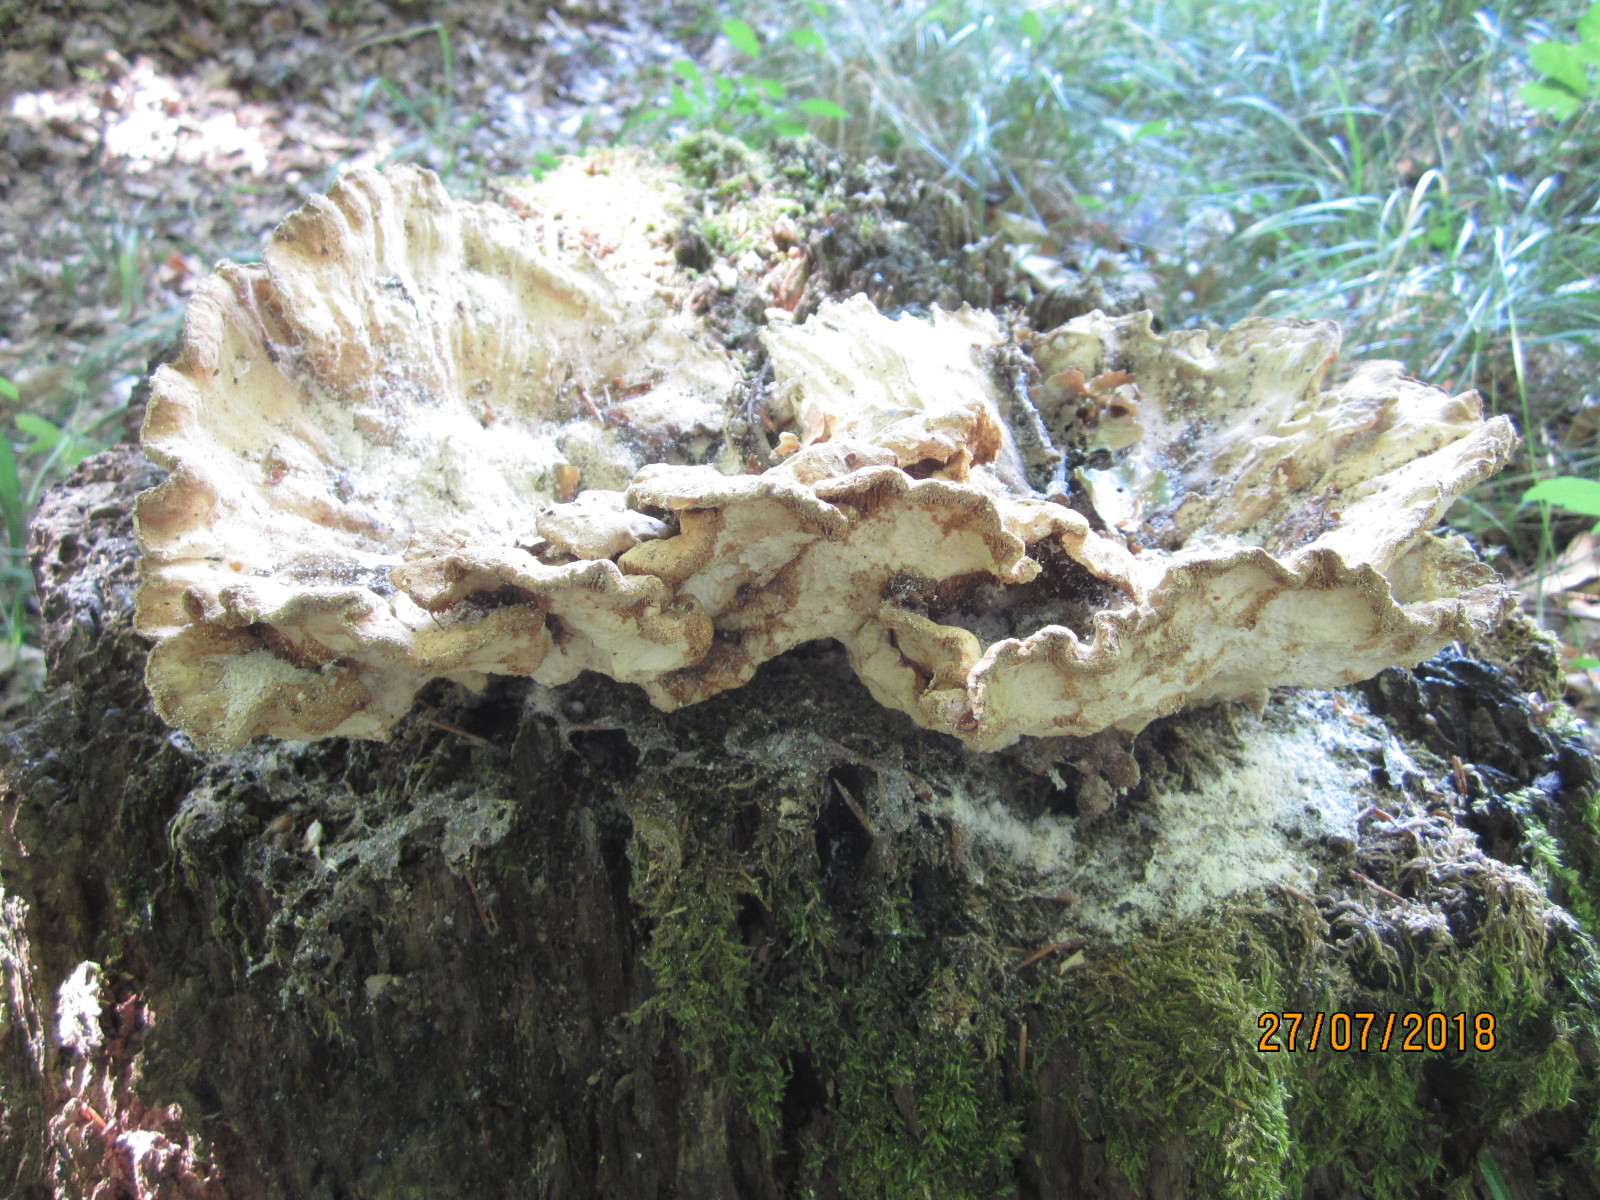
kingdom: Fungi
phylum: Basidiomycota
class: Agaricomycetes
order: Polyporales
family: Laetiporaceae
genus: Laetiporus
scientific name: Laetiporus sulphureus
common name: svovlporesvamp
